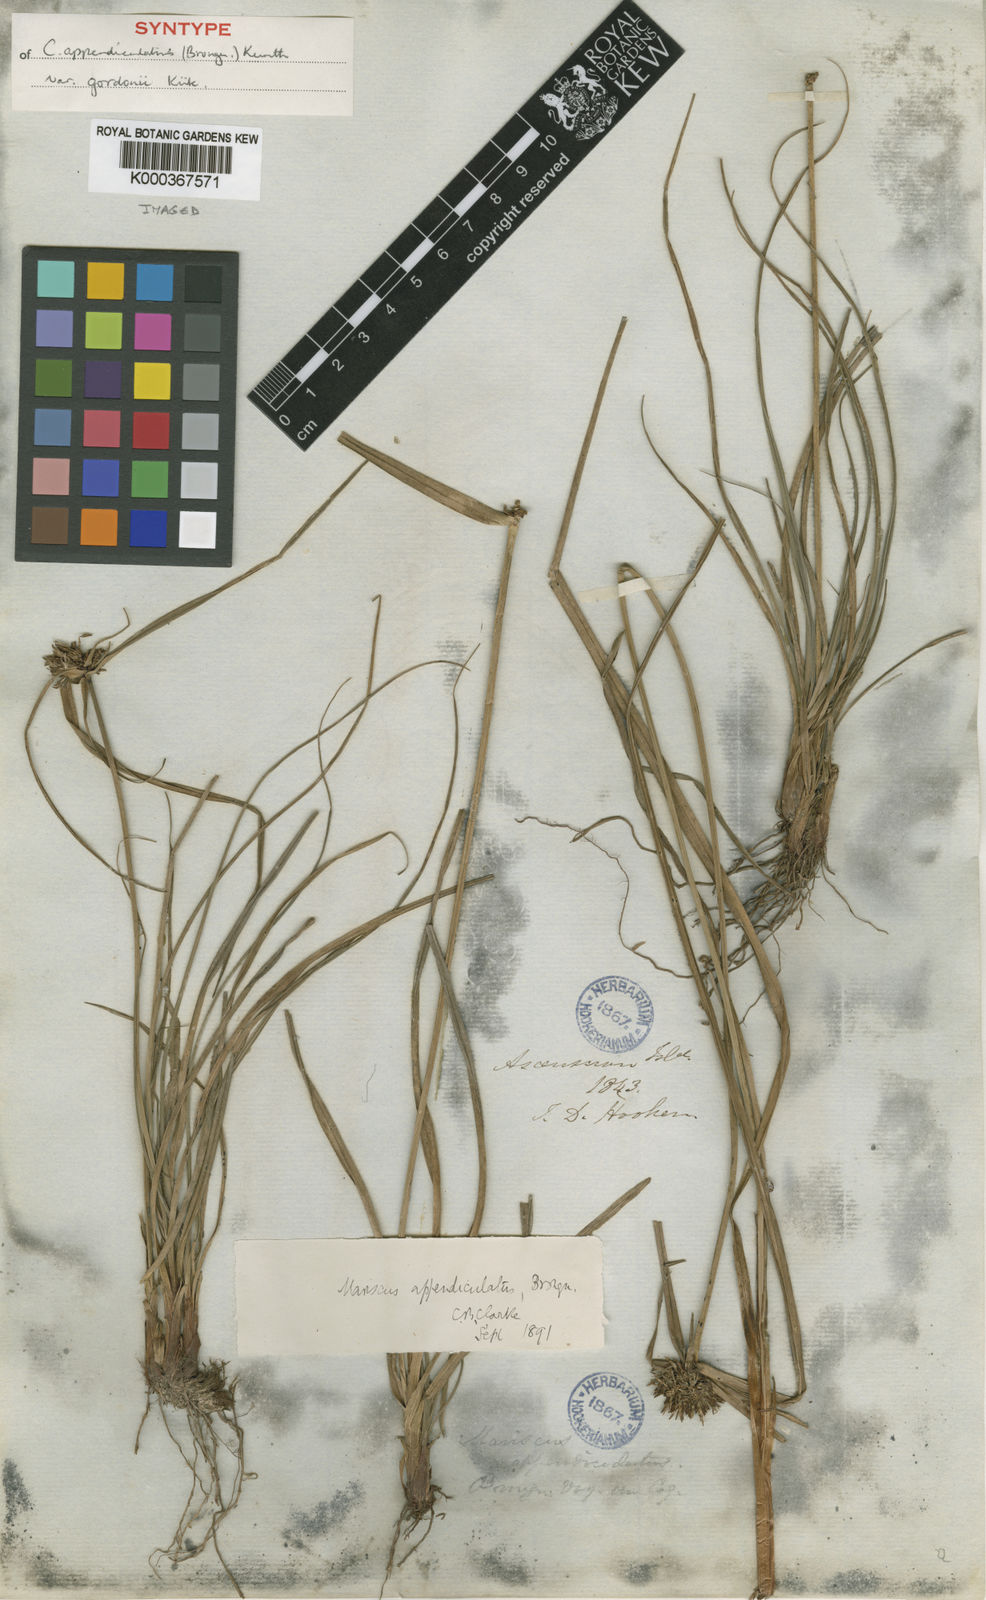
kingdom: Plantae
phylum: Tracheophyta
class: Liliopsida
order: Poales
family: Cyperaceae
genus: Cyperus
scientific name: Cyperus appendiculatus
